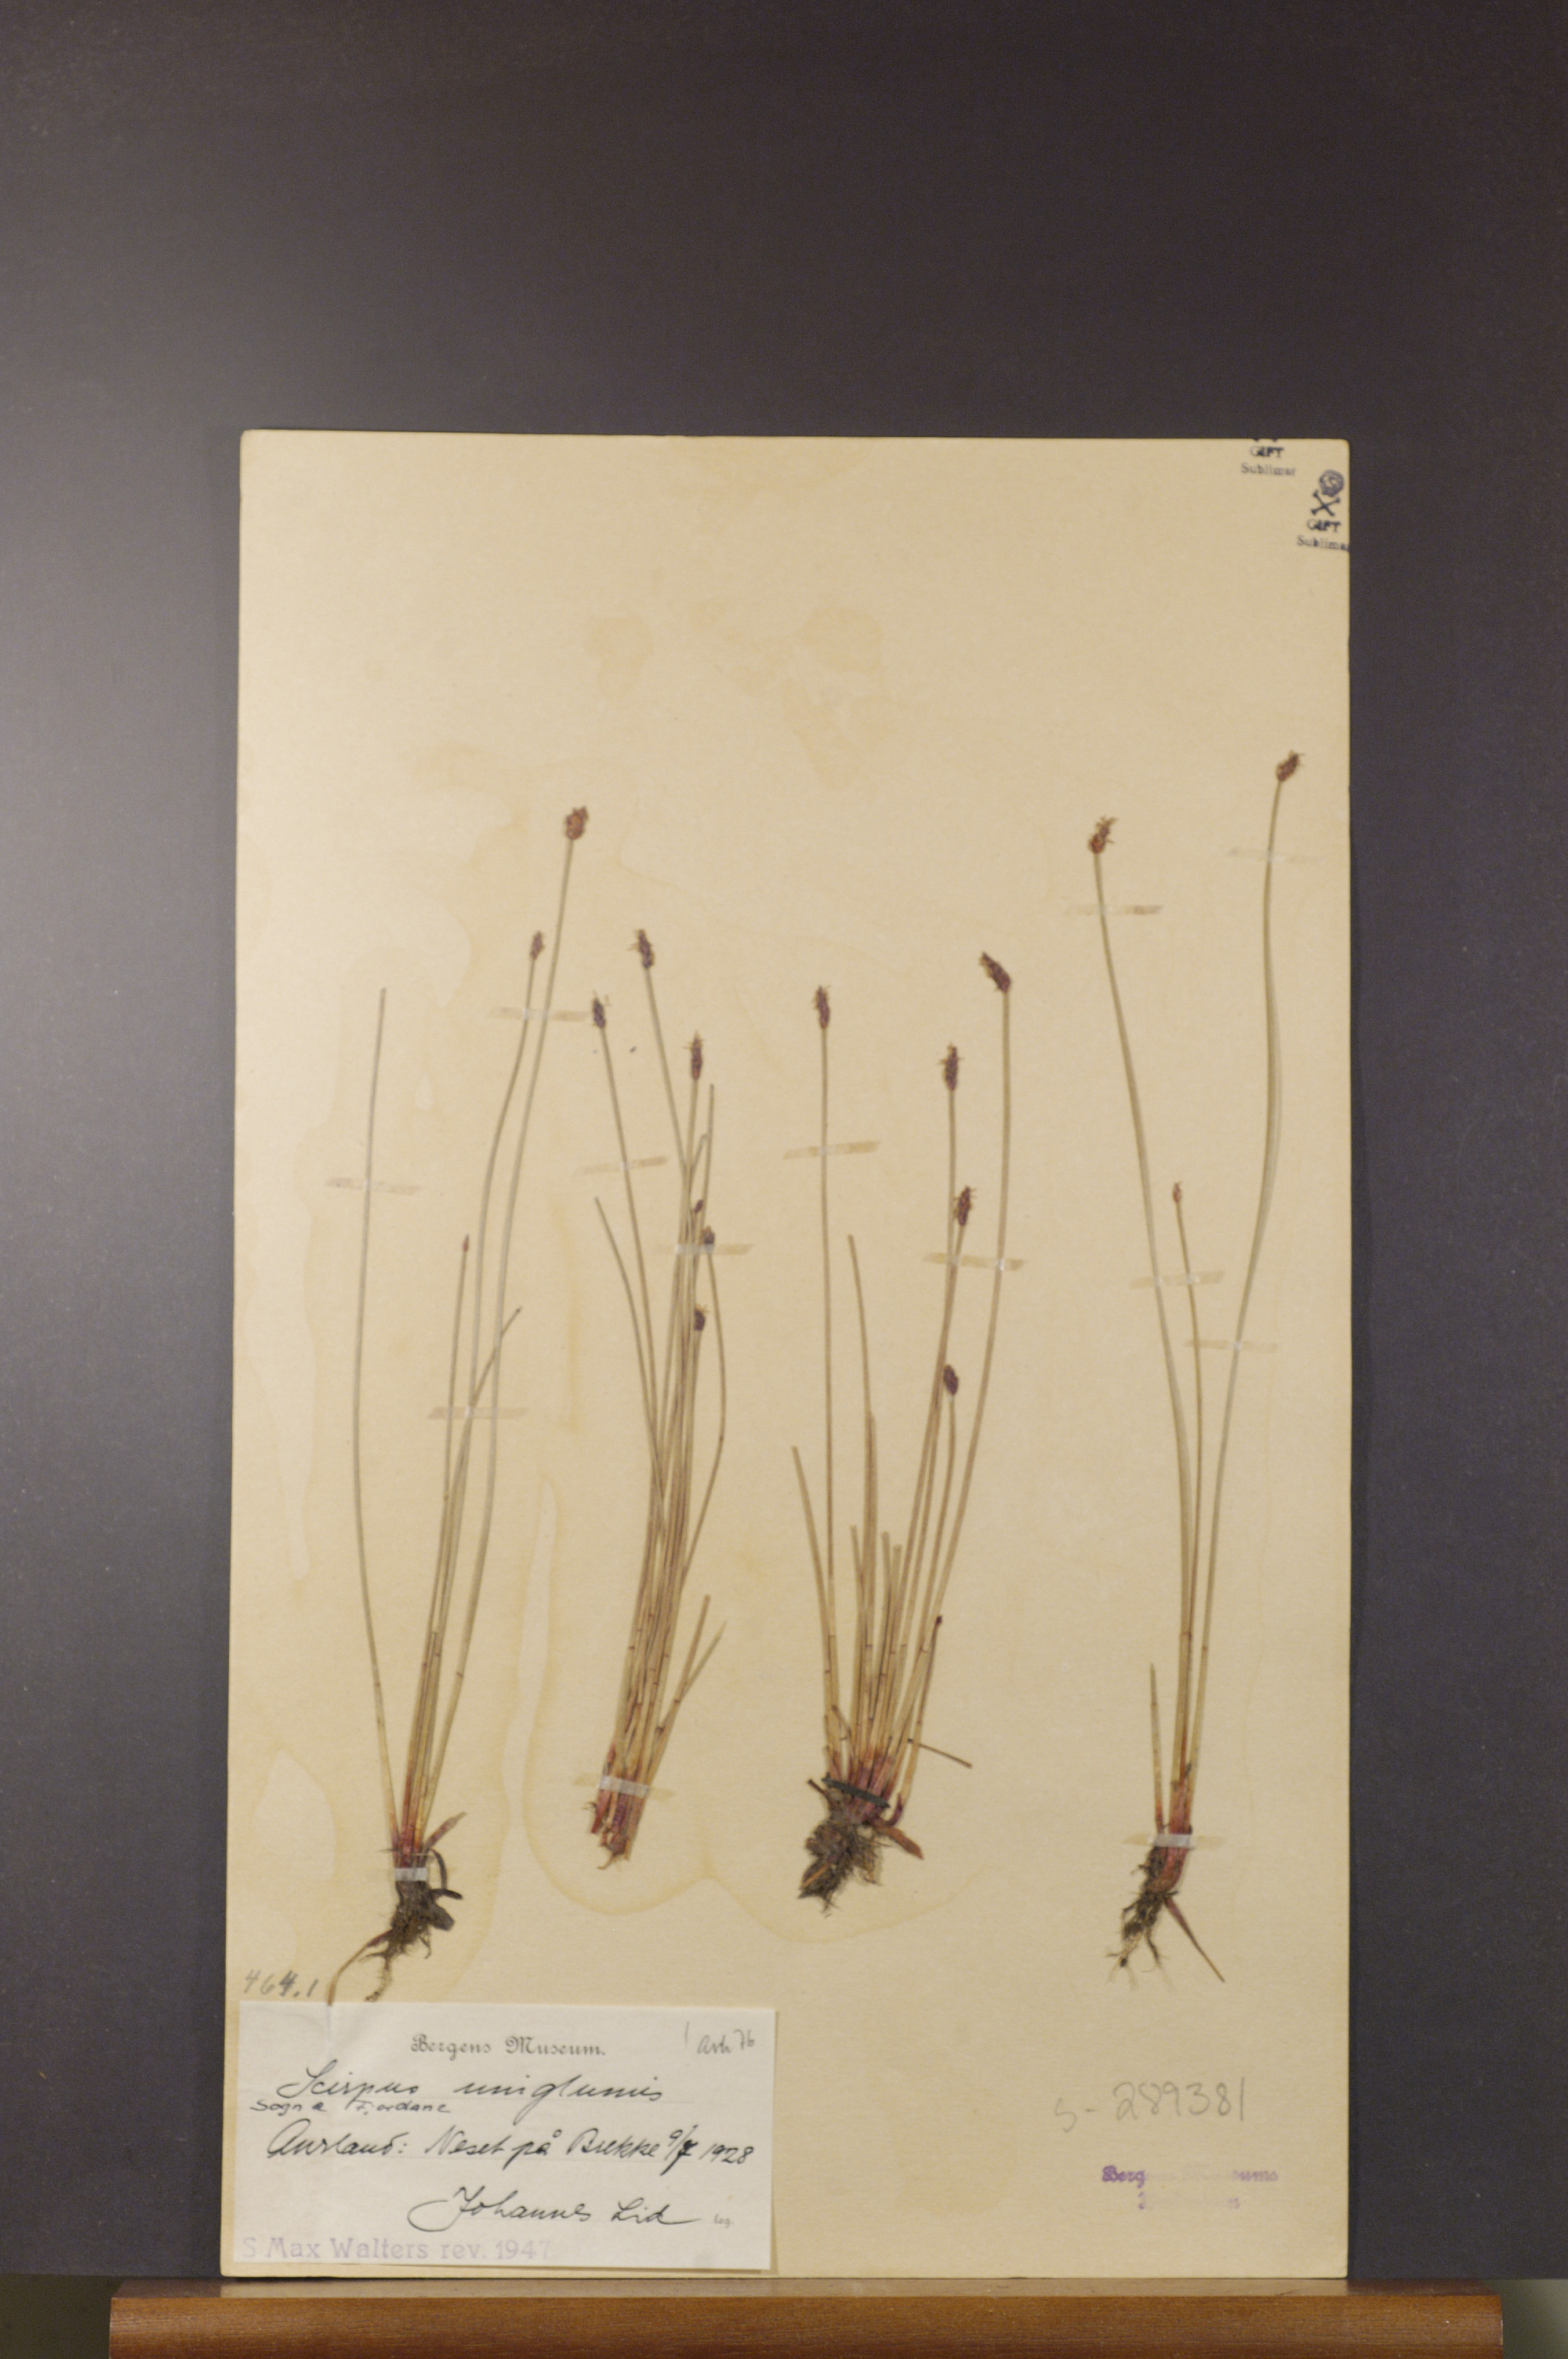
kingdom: Plantae
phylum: Tracheophyta
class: Liliopsida
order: Poales
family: Cyperaceae
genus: Eleocharis
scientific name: Eleocharis uniglumis
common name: Slender spike-rush
